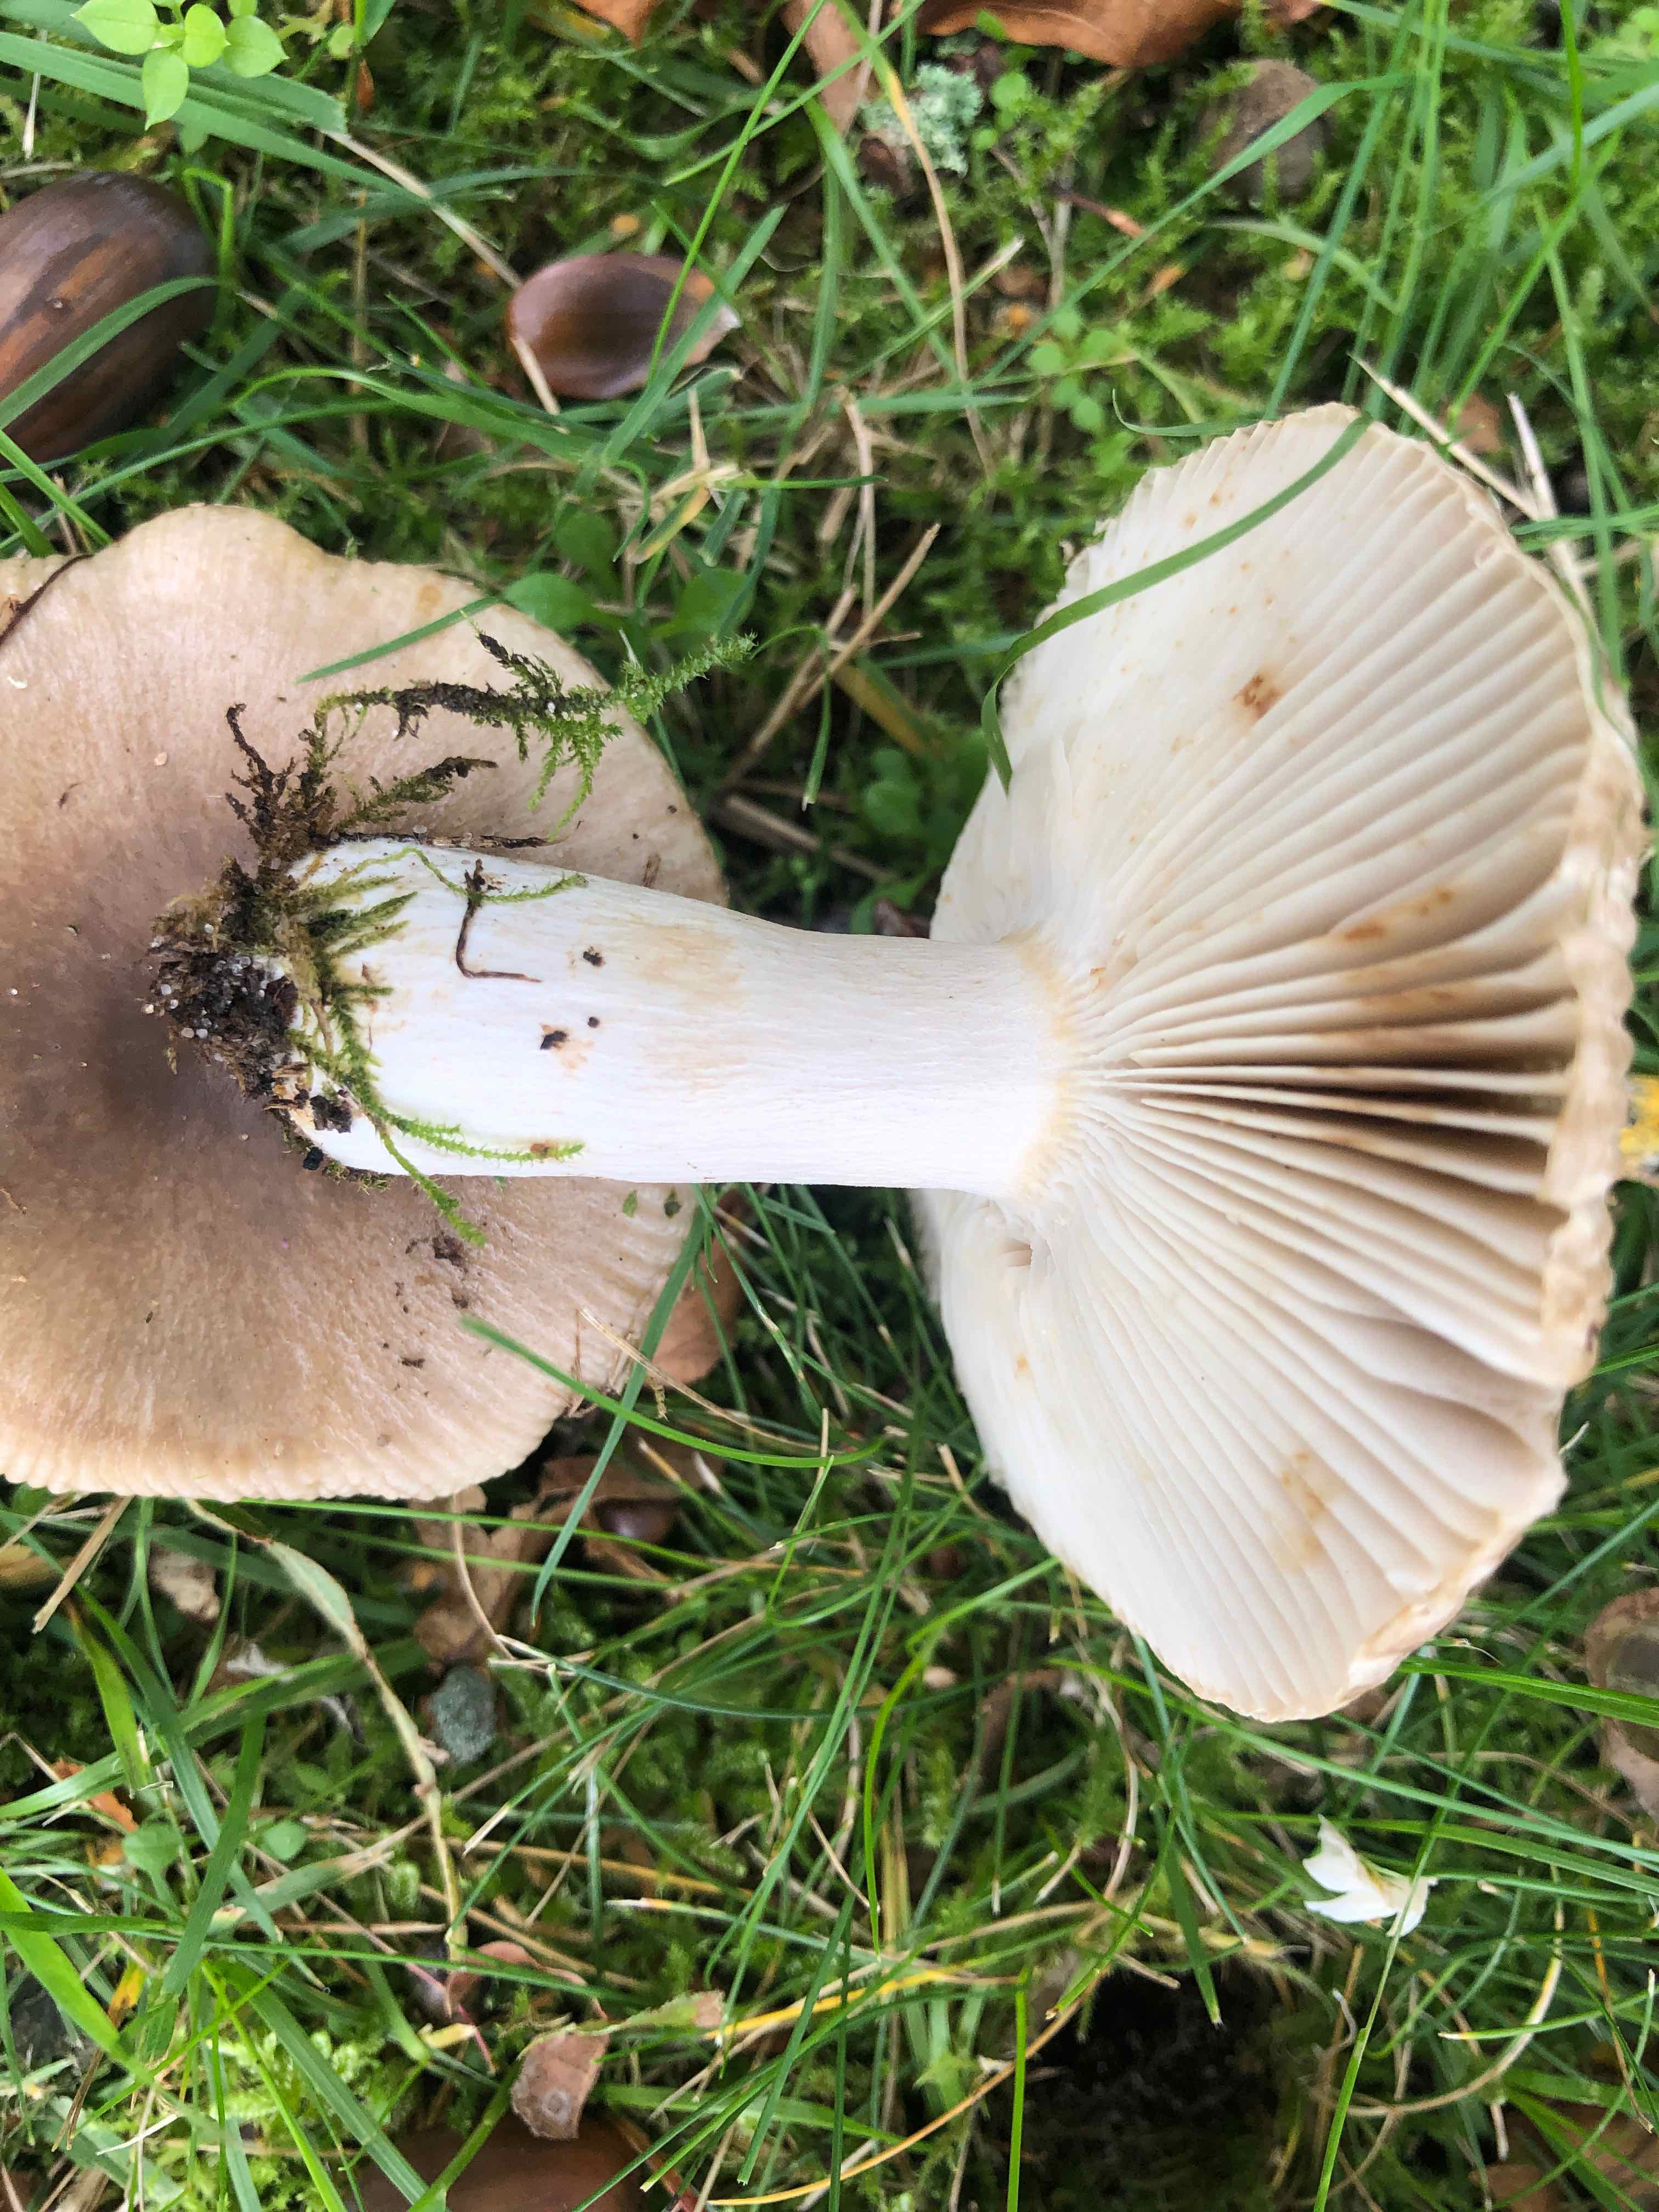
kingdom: Fungi
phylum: Basidiomycota
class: Agaricomycetes
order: Russulales
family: Russulaceae
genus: Russula
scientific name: Russula recondita
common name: mild kam-skørhat
